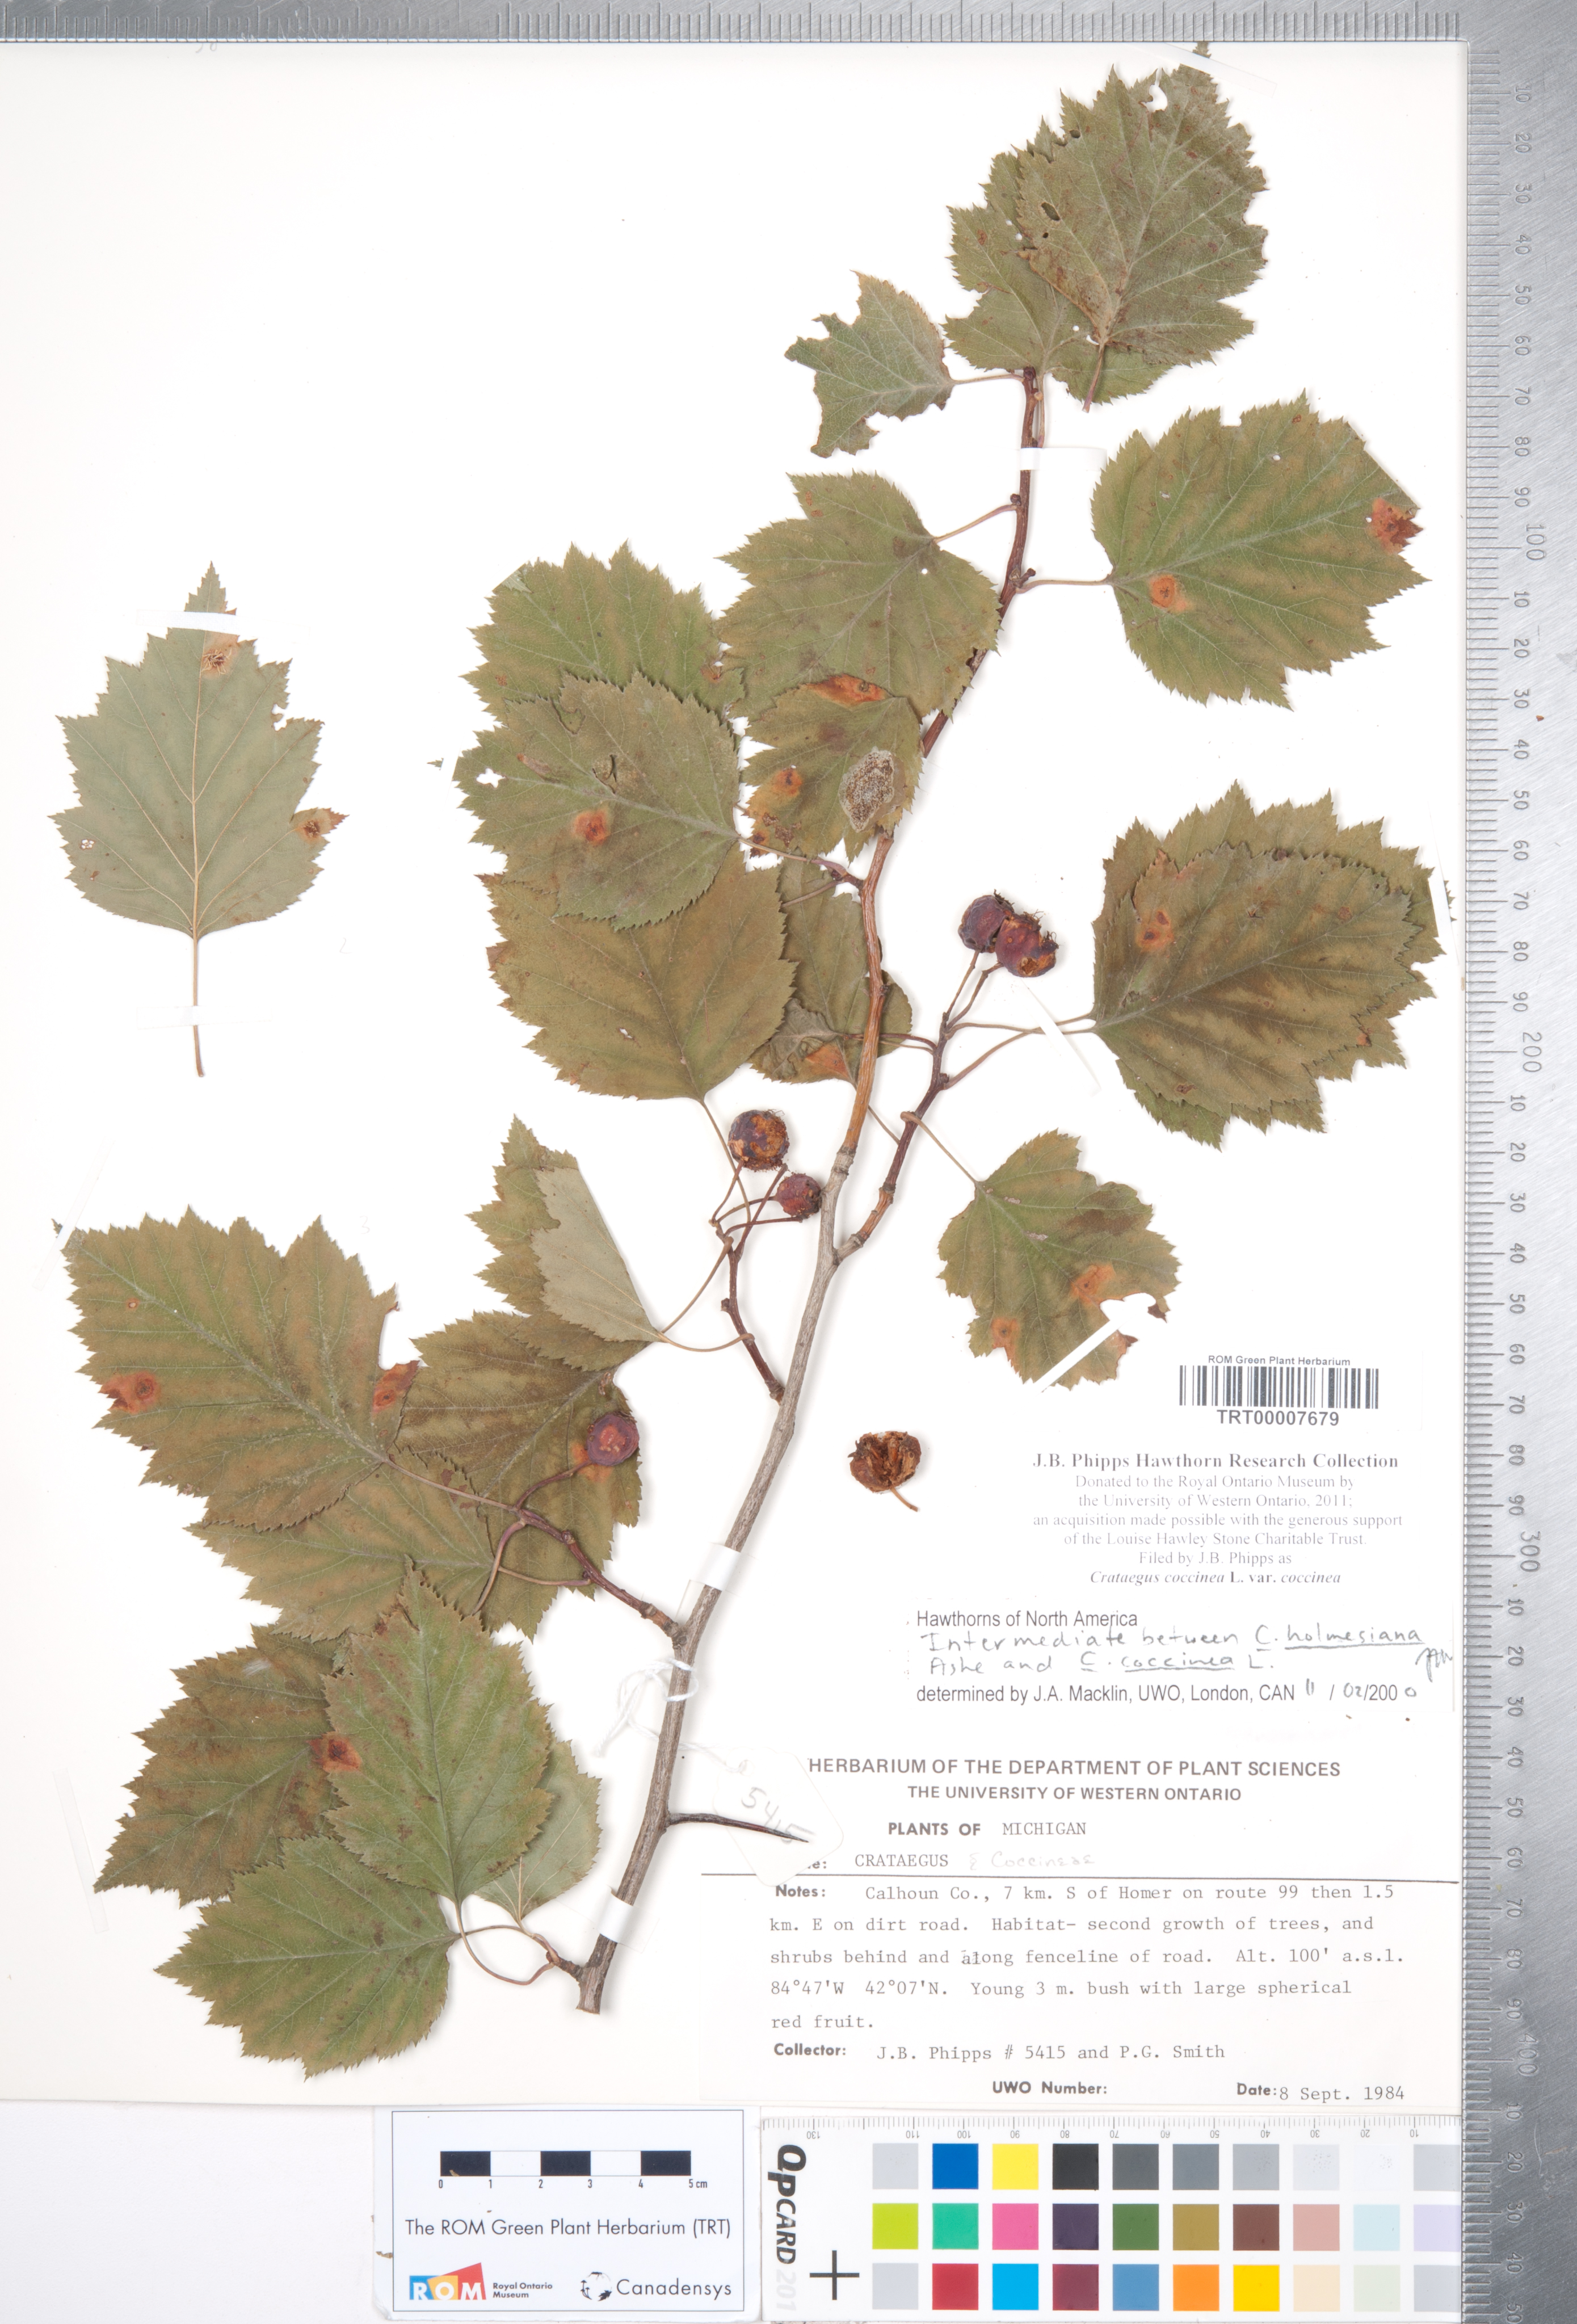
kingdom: Plantae
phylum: Tracheophyta
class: Magnoliopsida
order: Rosales
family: Rosaceae
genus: Crataegus
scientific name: Crataegus coccinea
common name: Scarlet hawthorn
